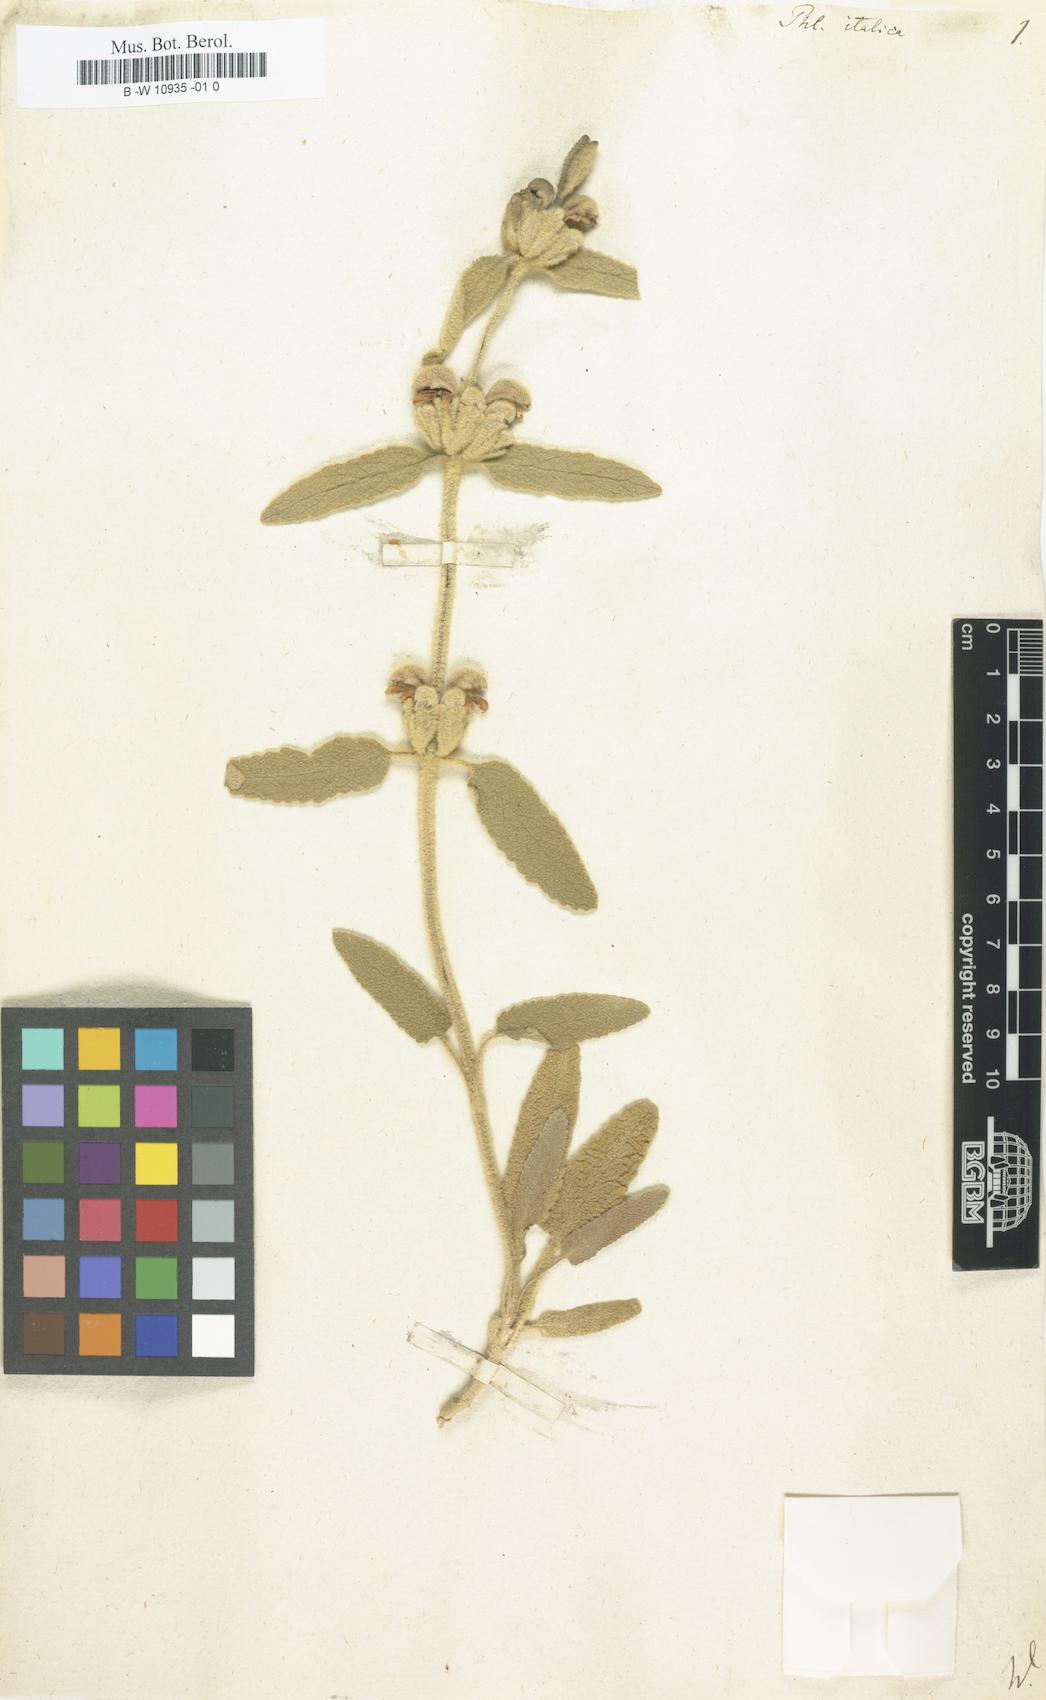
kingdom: Plantae
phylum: Tracheophyta
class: Magnoliopsida
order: Lamiales
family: Lamiaceae
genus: Phlomis
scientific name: Phlomis italica
